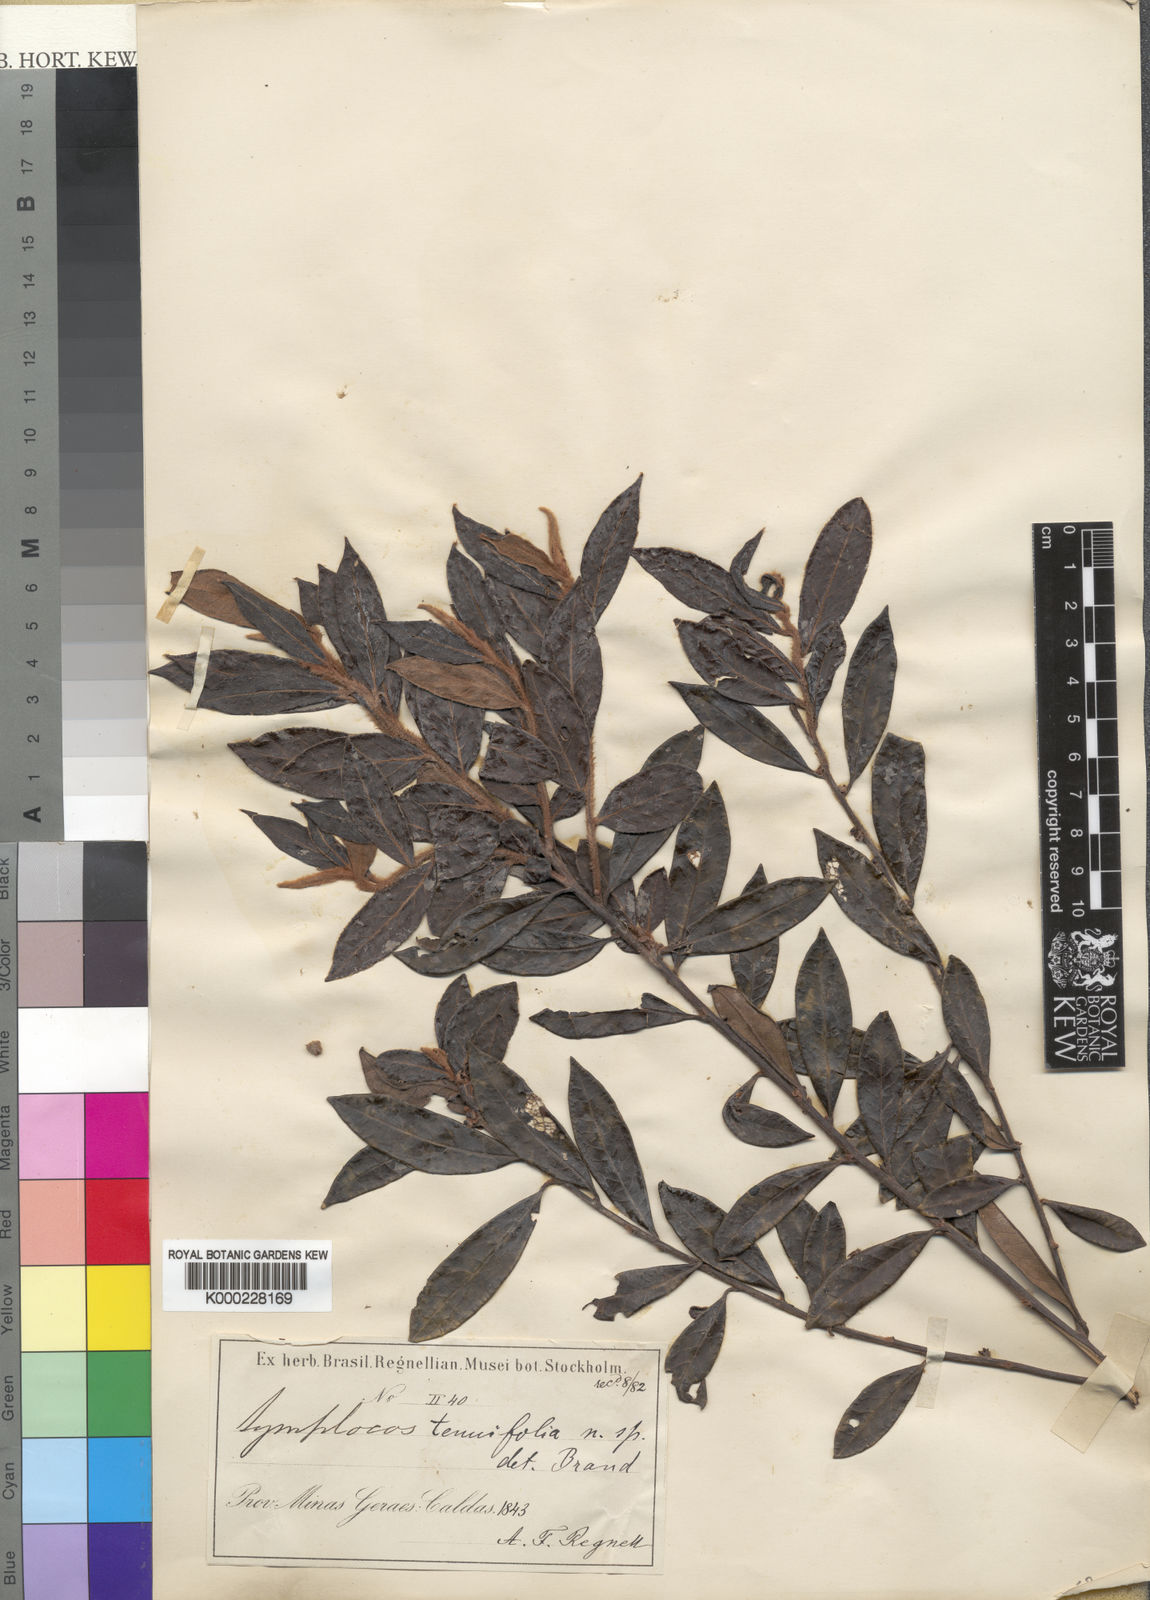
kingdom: Plantae
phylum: Tracheophyta
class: Magnoliopsida
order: Ericales
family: Symplocaceae
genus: Symplocos
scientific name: Symplocos tenuifolia
